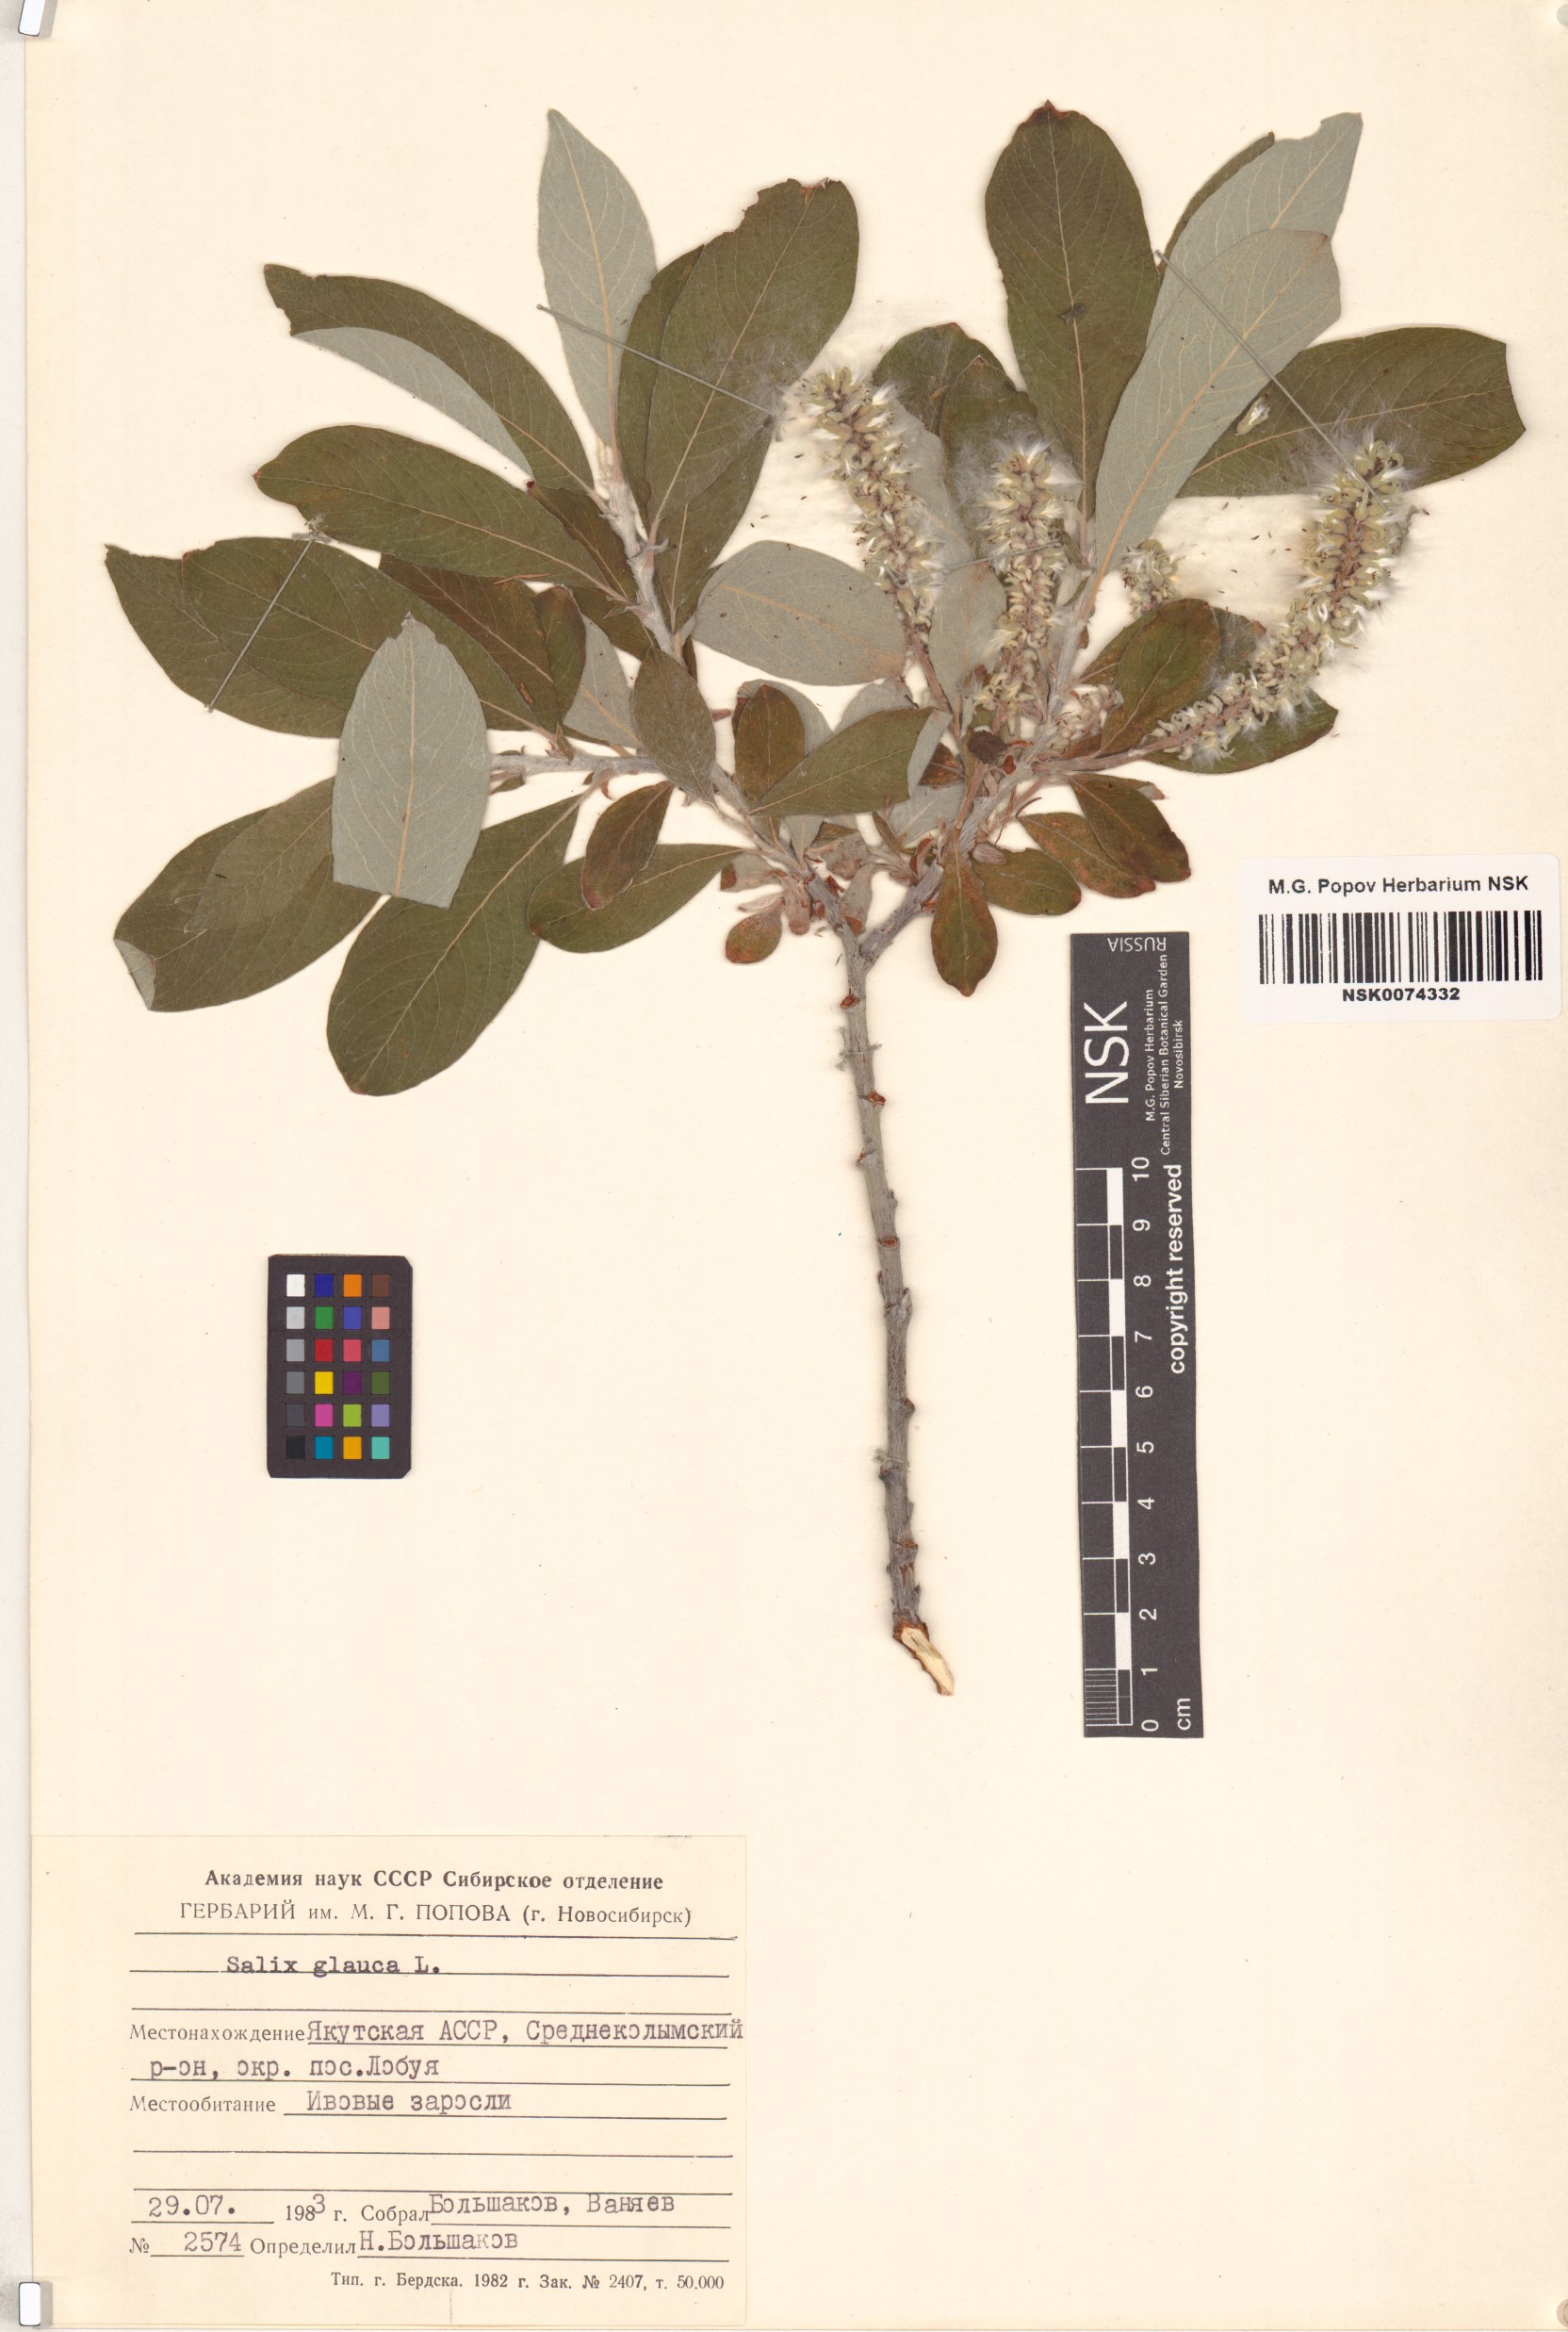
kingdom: Plantae
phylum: Tracheophyta
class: Magnoliopsida
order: Malpighiales
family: Salicaceae
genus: Salix
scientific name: Salix glauca
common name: Glaucous willow
